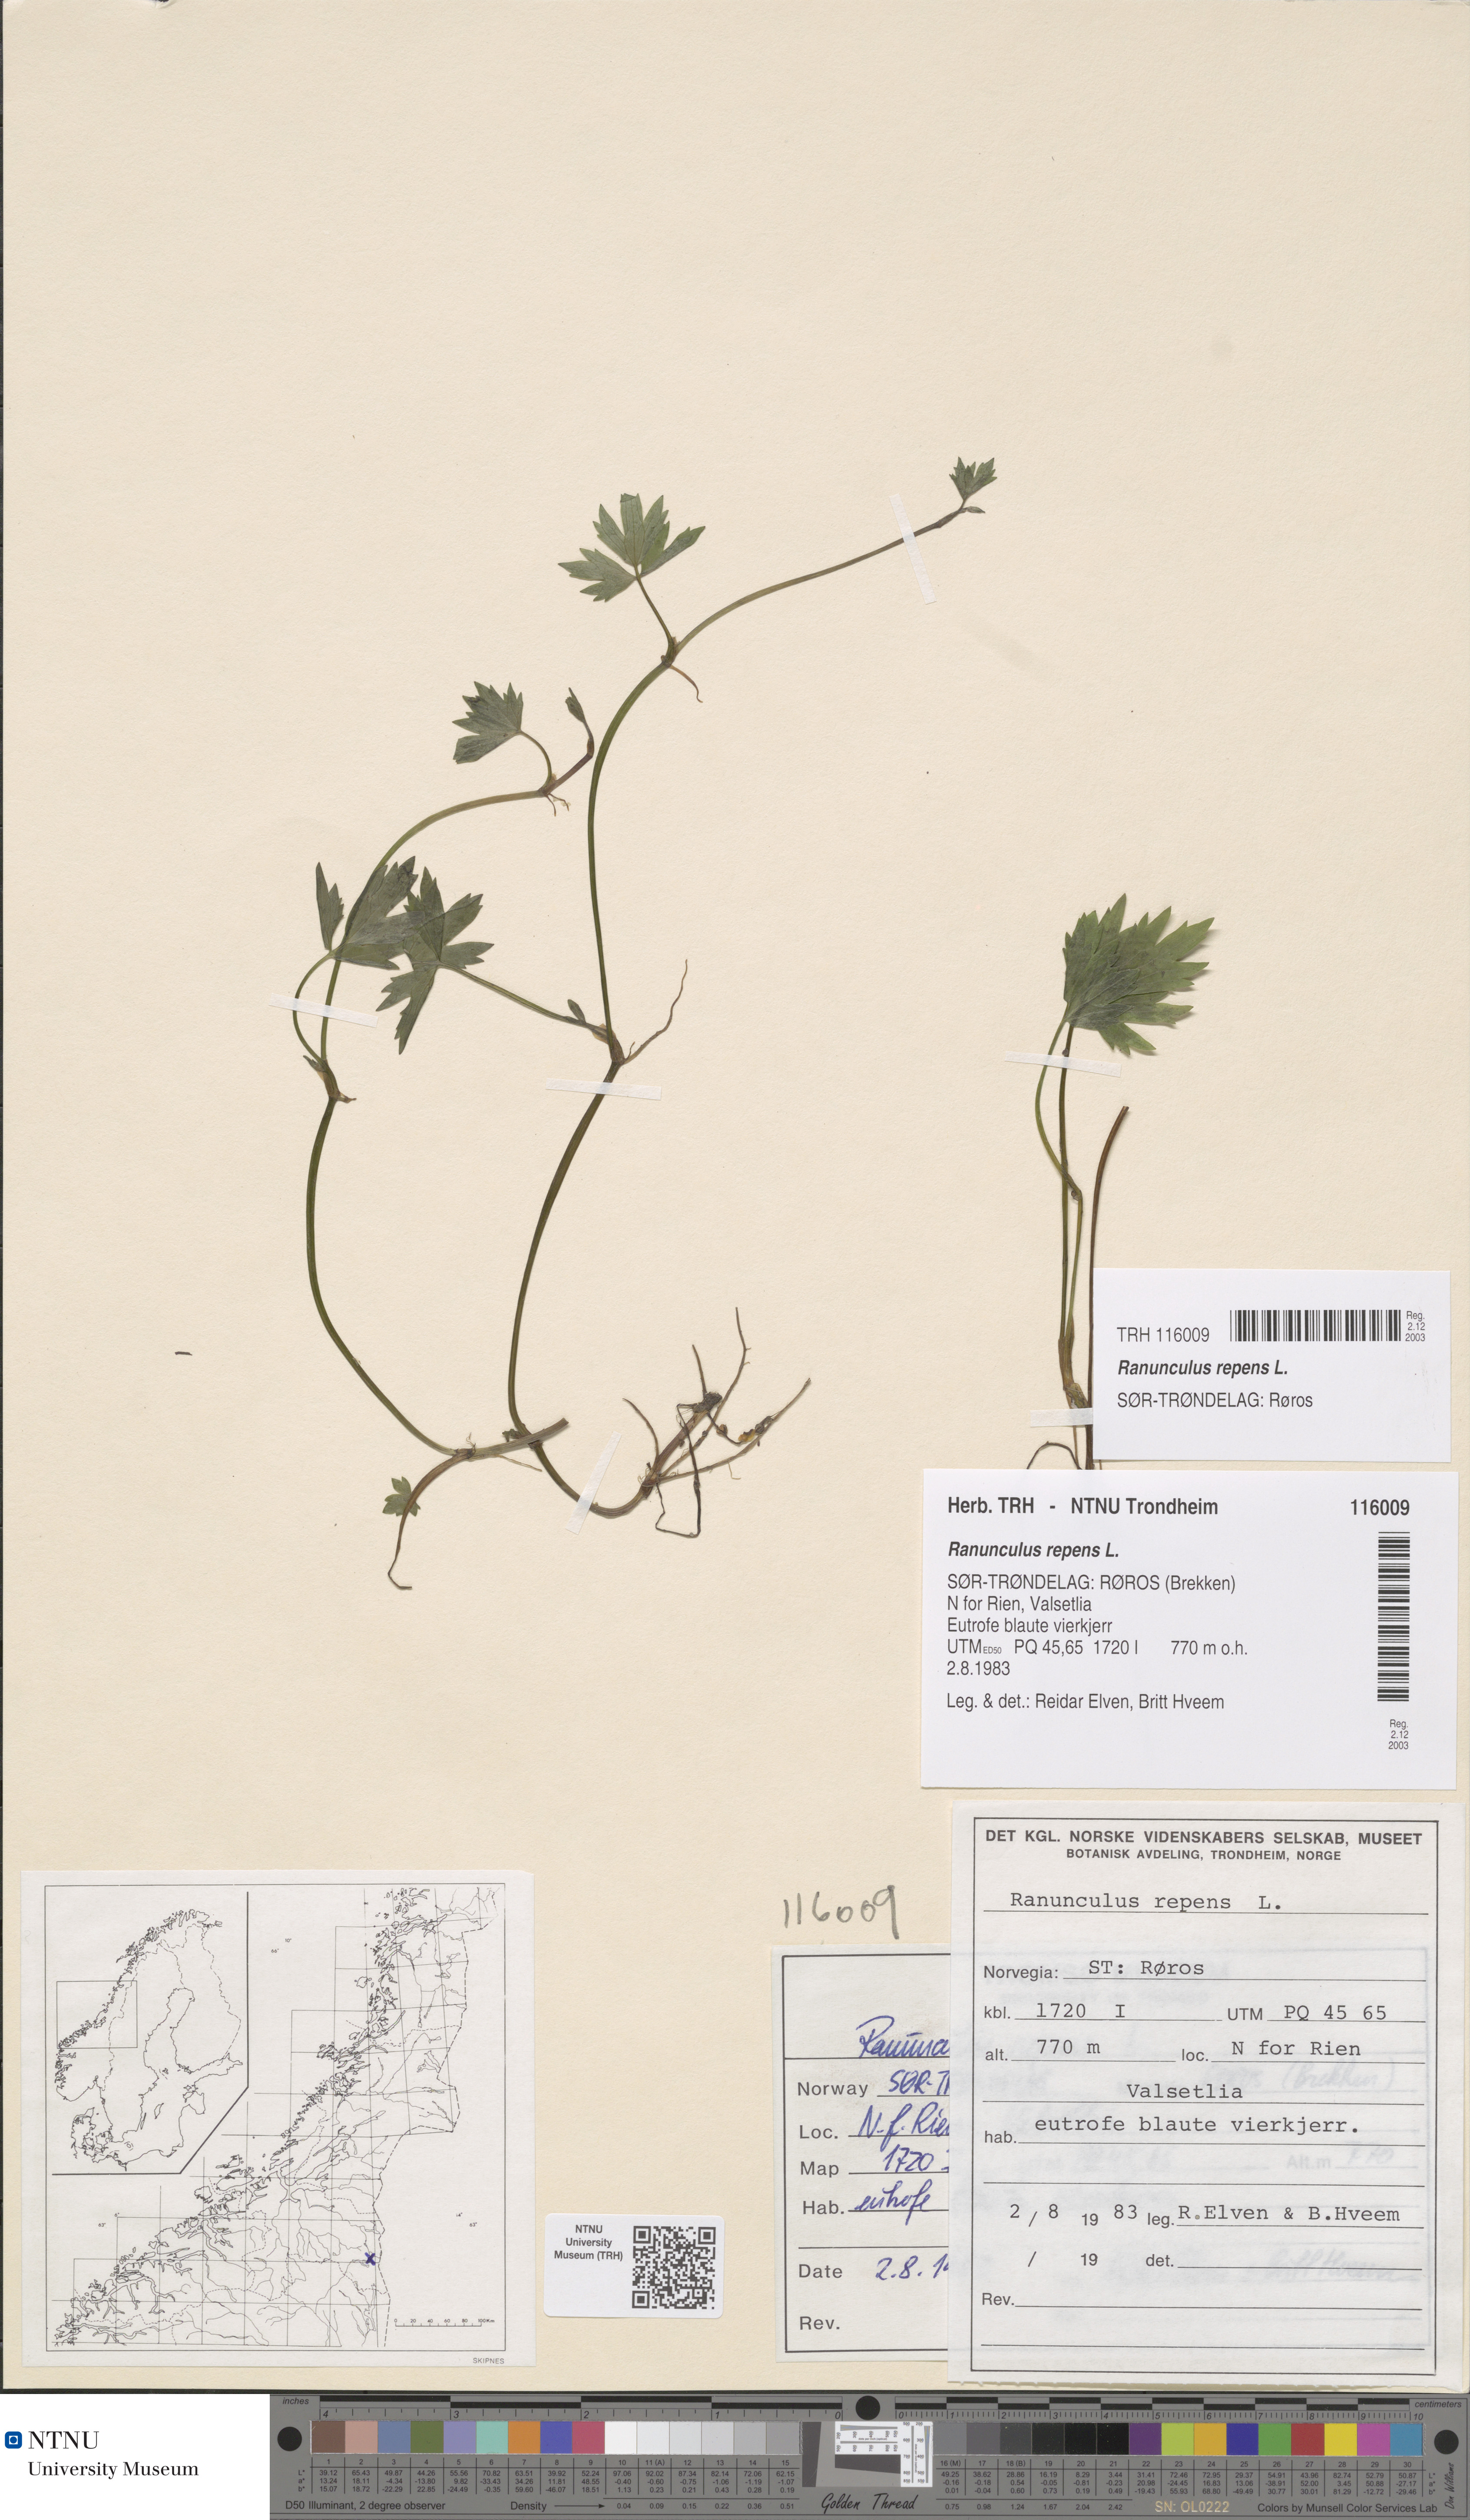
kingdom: Plantae
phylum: Tracheophyta
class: Magnoliopsida
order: Ranunculales
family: Ranunculaceae
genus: Ranunculus
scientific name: Ranunculus repens
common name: Creeping buttercup
